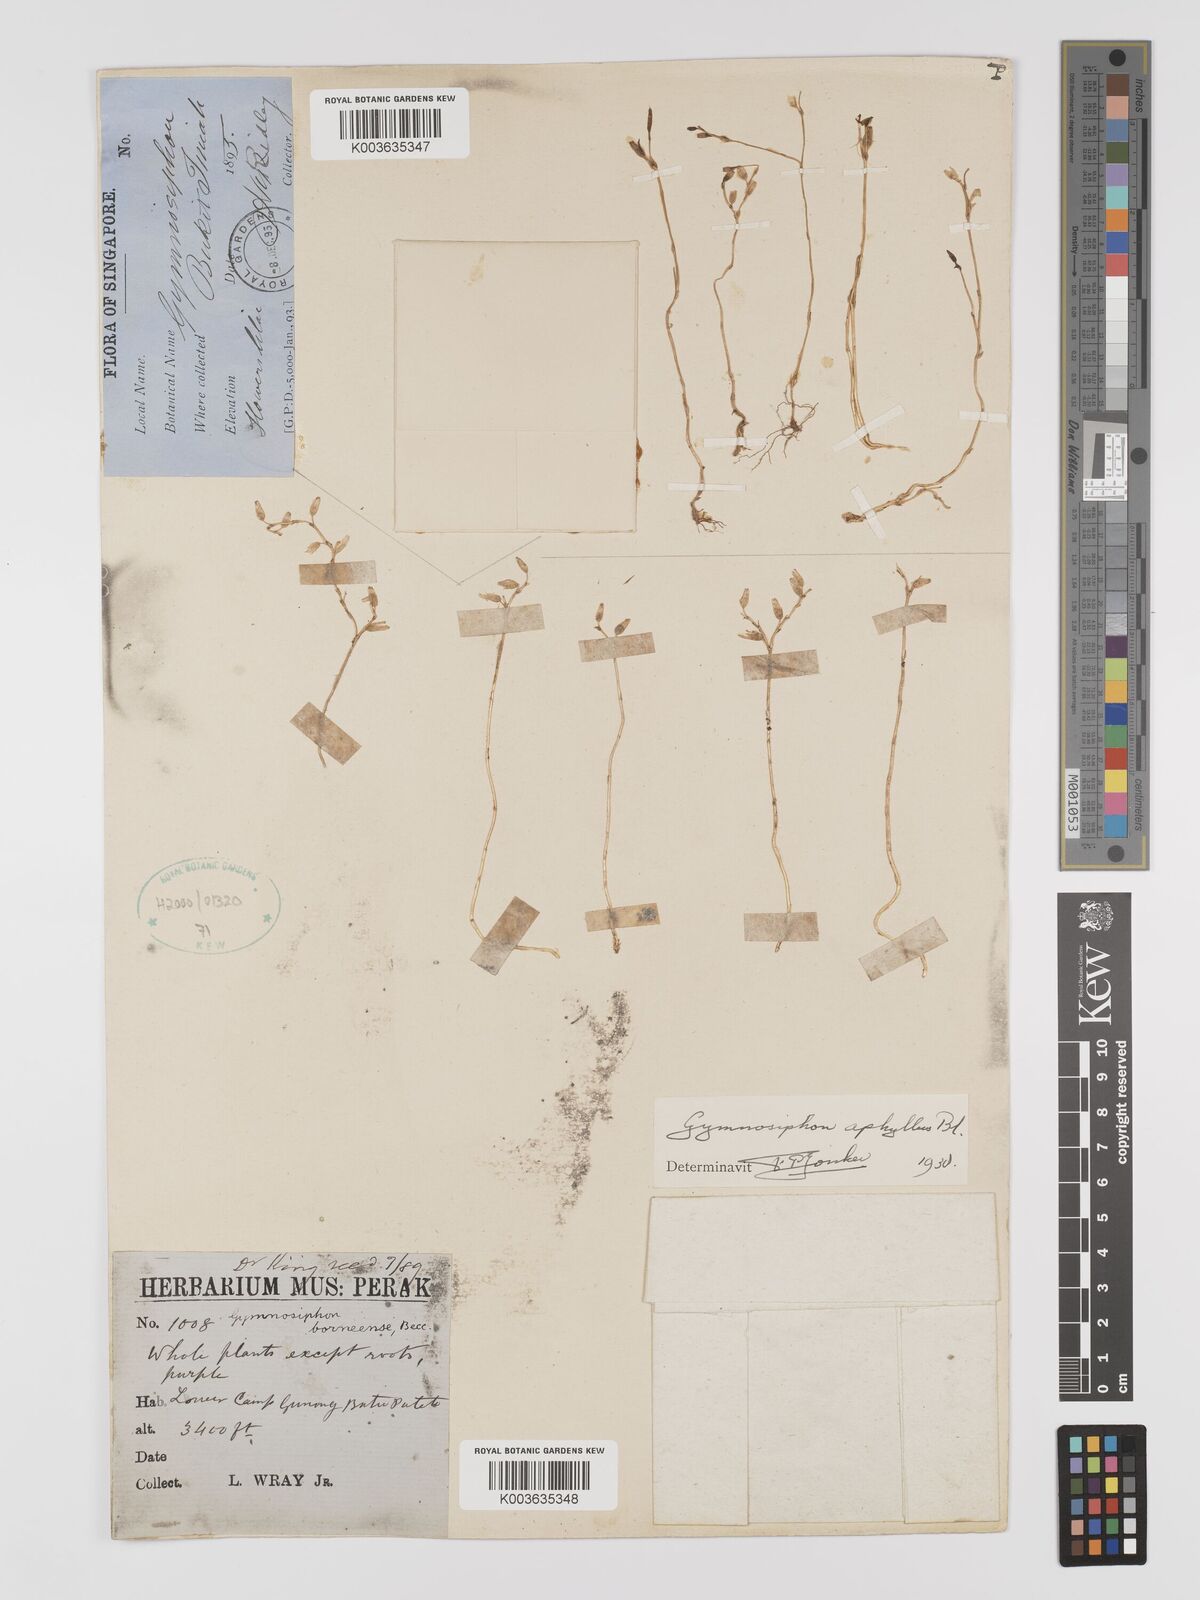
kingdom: Plantae
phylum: Tracheophyta
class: Liliopsida
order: Dioscoreales
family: Burmanniaceae
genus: Gymnosiphon
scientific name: Gymnosiphon aphyllus
